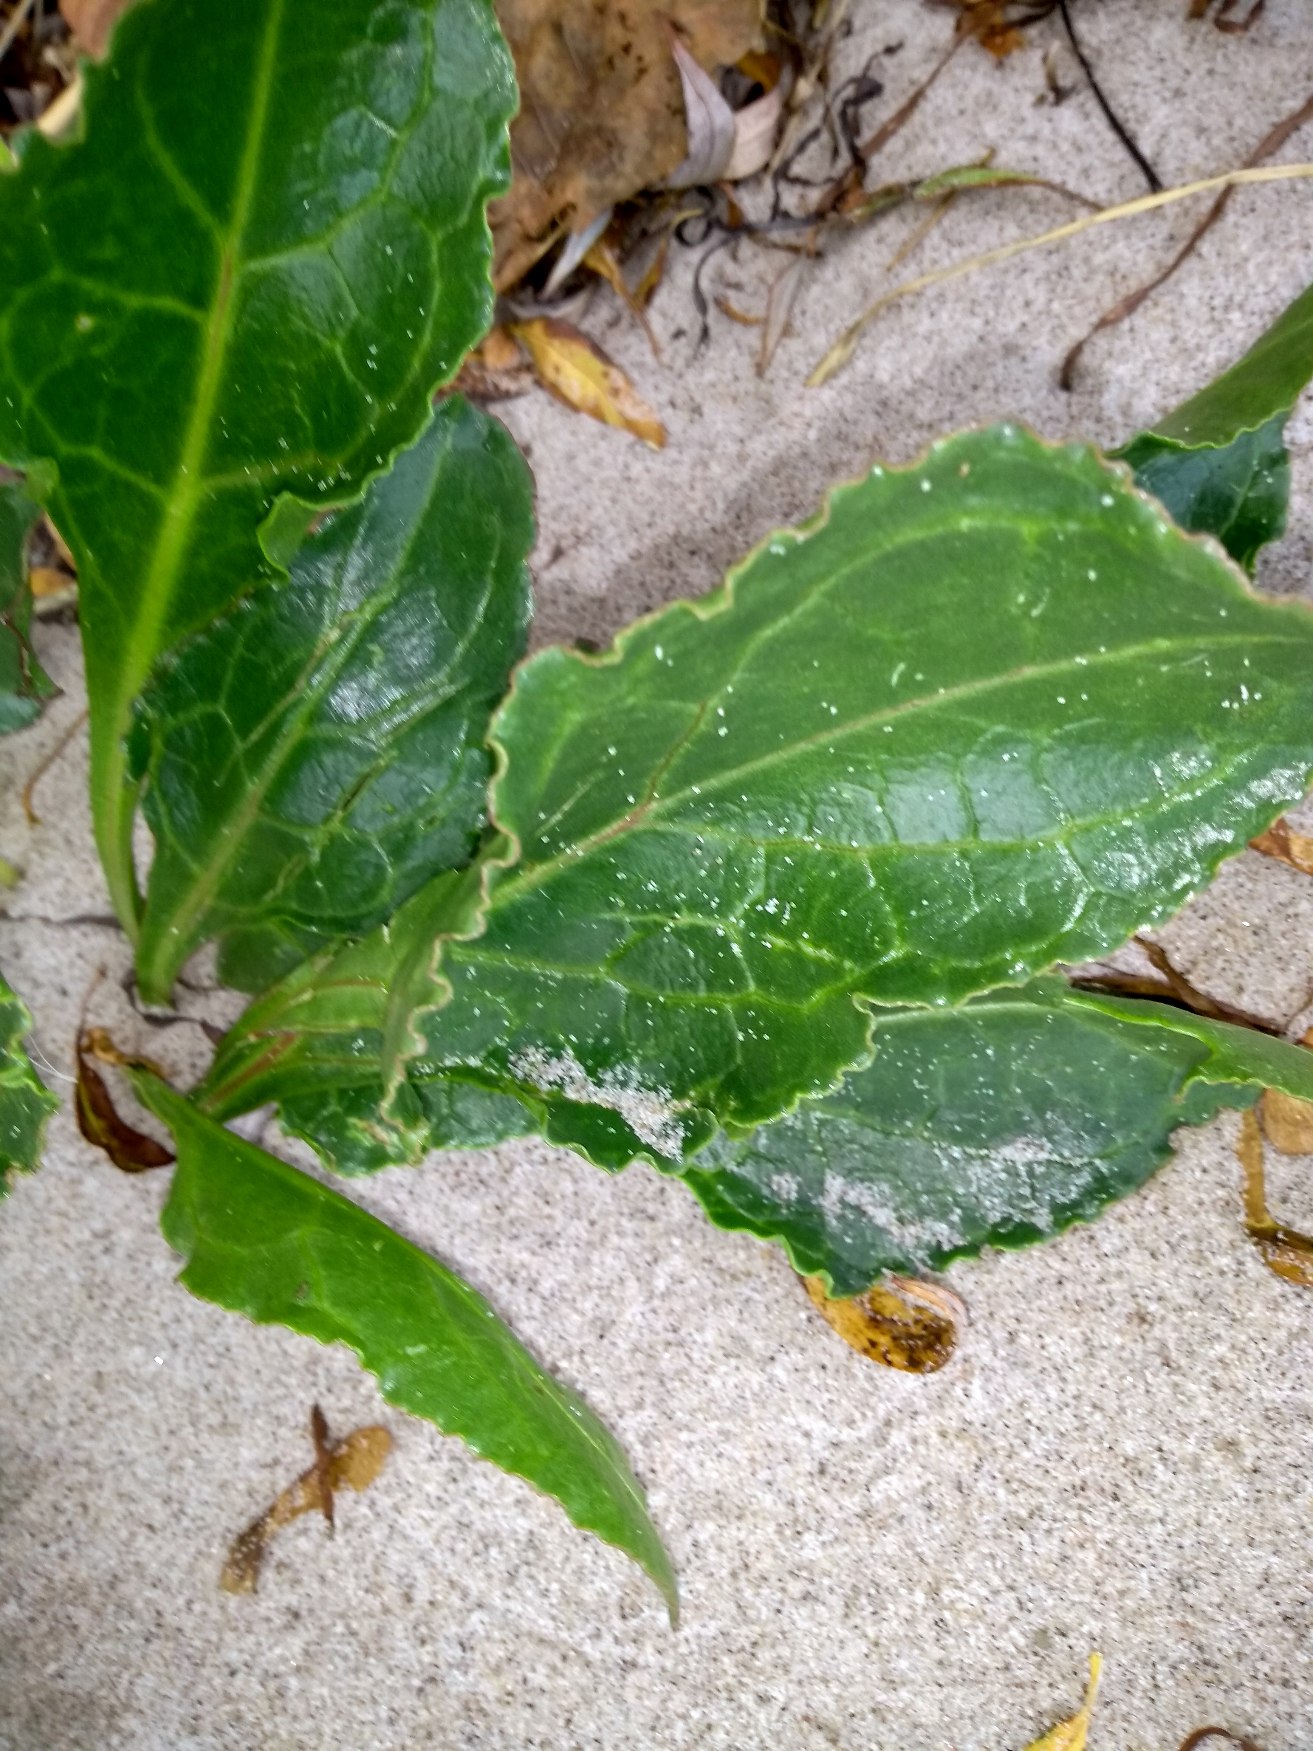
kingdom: Plantae
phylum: Tracheophyta
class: Magnoliopsida
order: Caryophyllales
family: Amaranthaceae
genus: Beta
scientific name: Beta maritima
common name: Strand-bede
